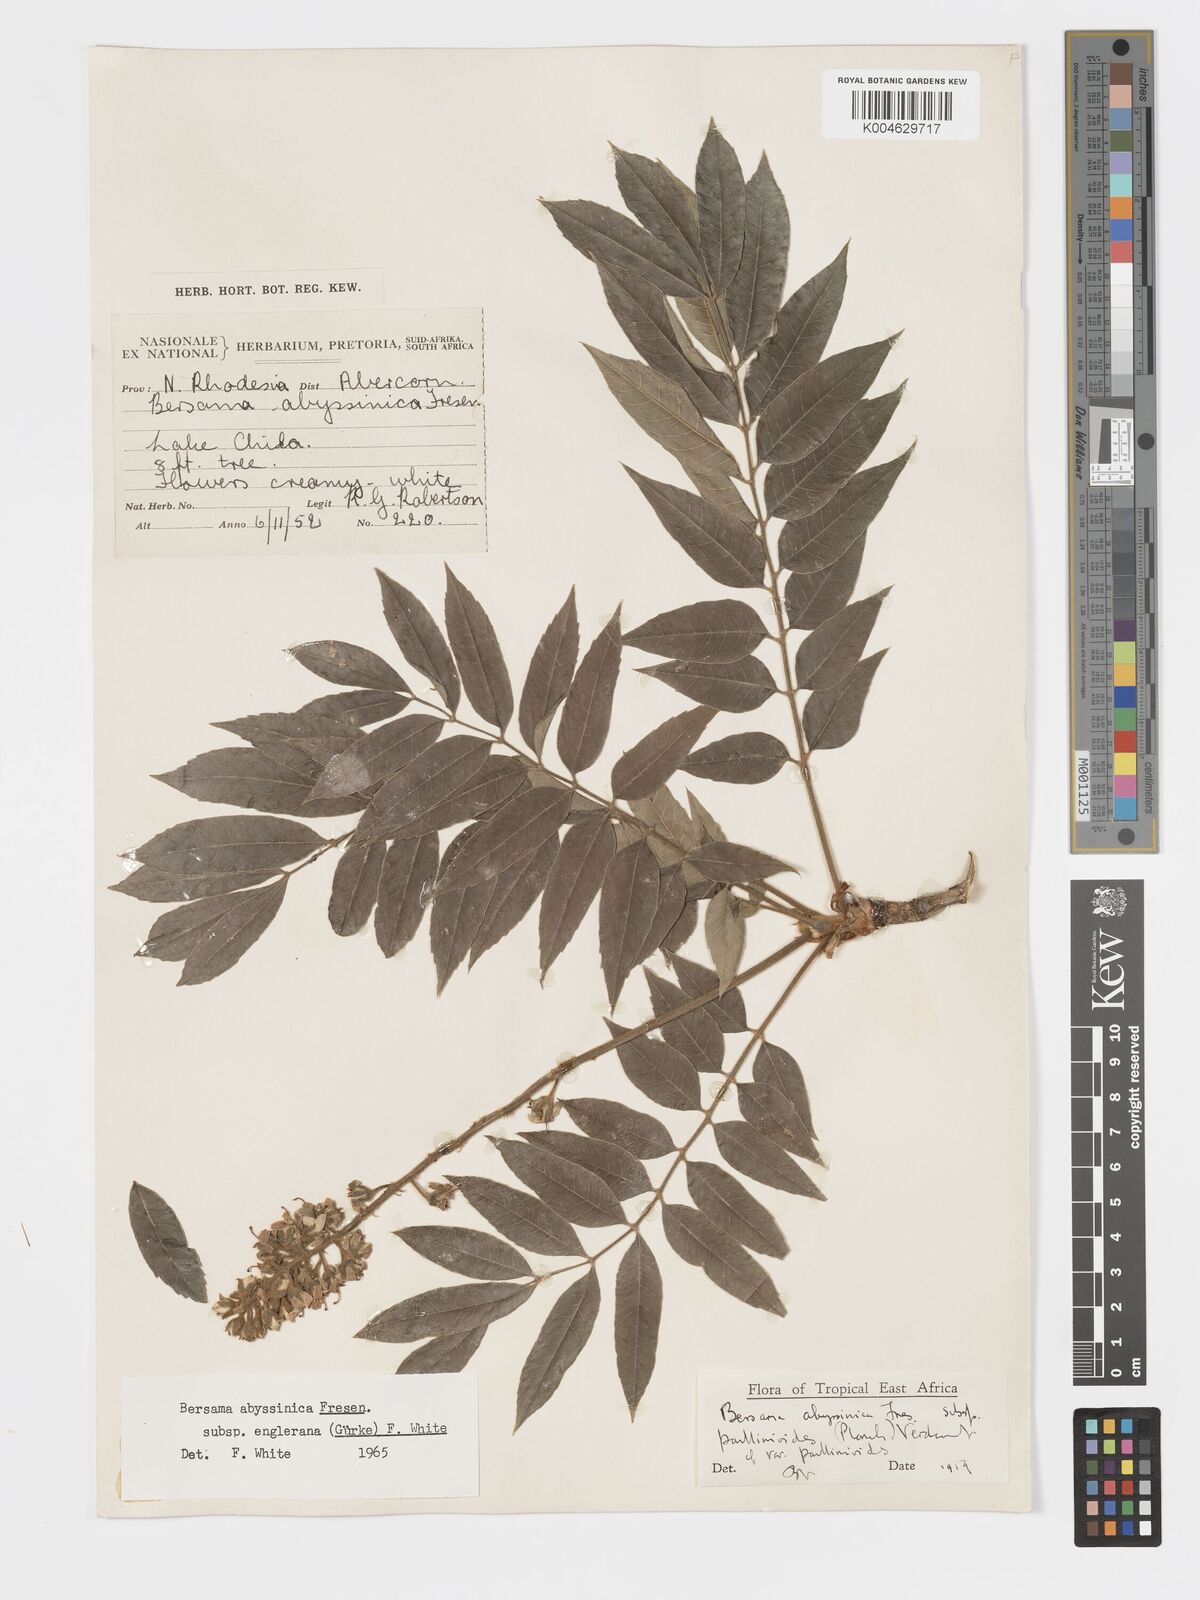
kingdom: Plantae
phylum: Tracheophyta
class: Magnoliopsida
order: Geraniales
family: Melianthaceae
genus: Bersama
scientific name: Bersama abyssinica
